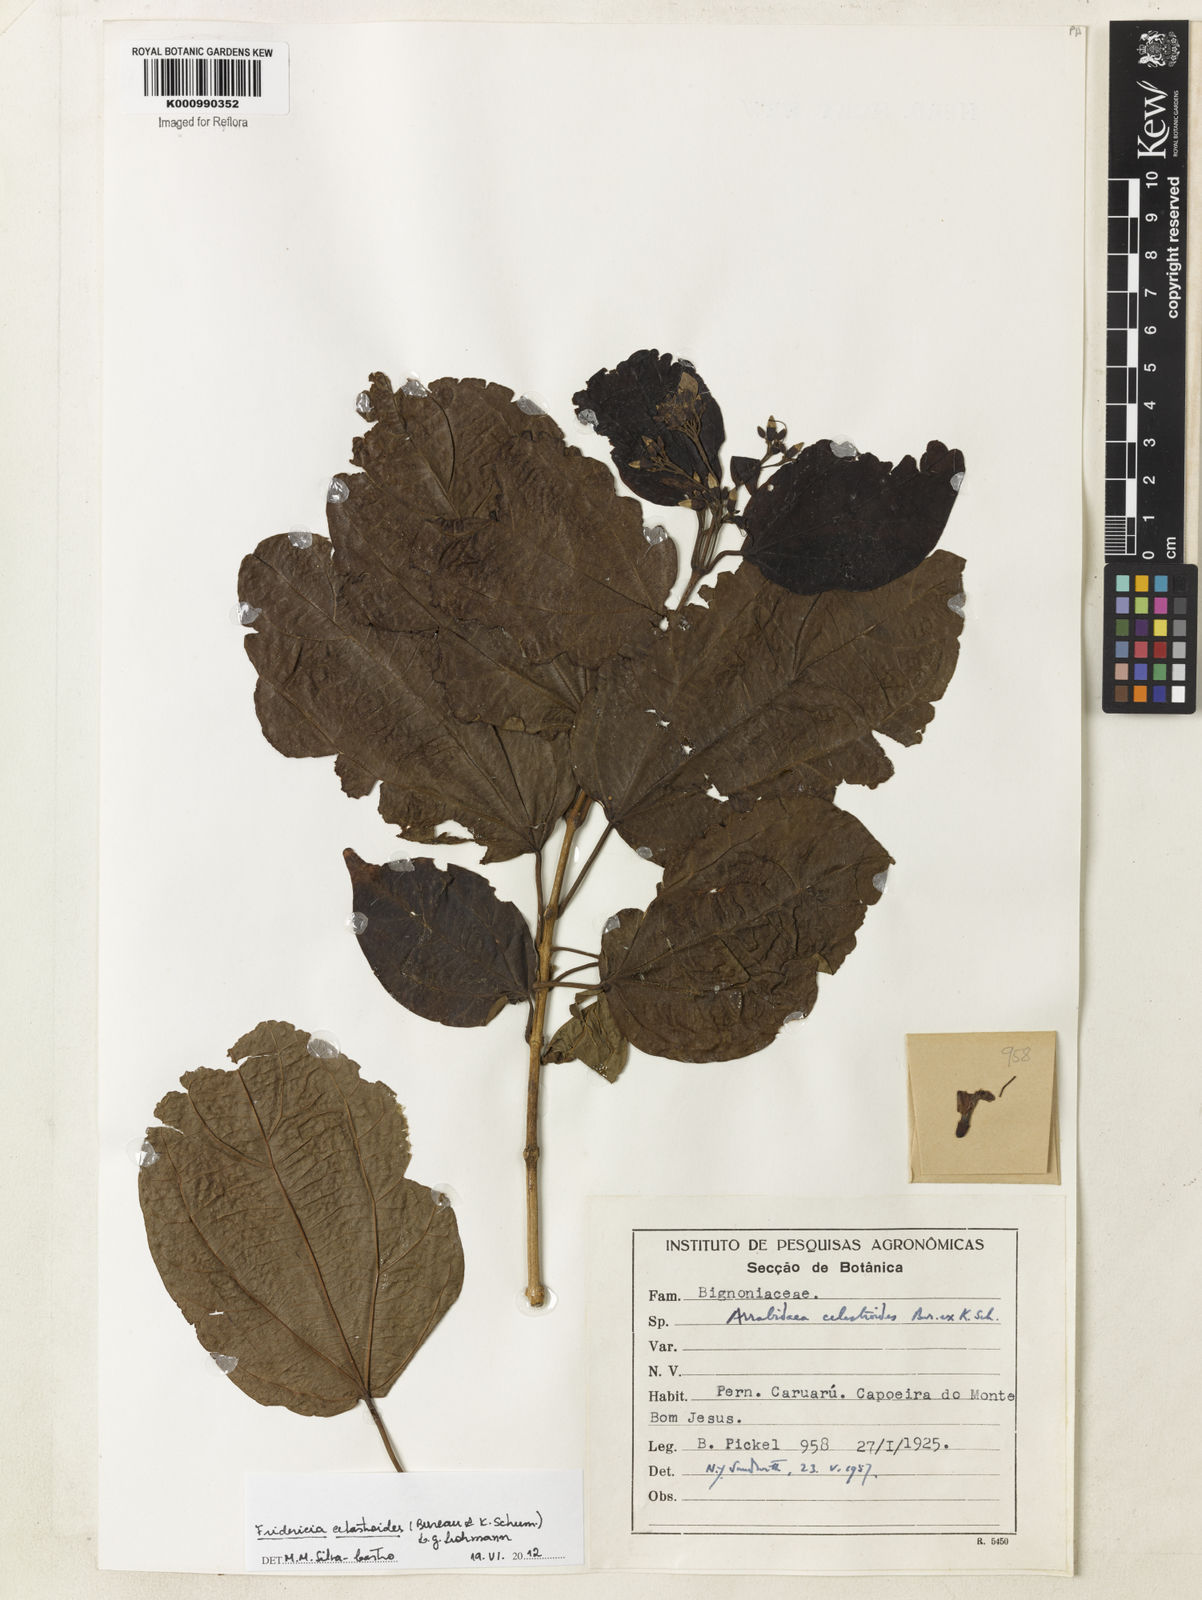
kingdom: Plantae
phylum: Tracheophyta
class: Magnoliopsida
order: Lamiales
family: Bignoniaceae
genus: Fridericia
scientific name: Fridericia platyphylla
